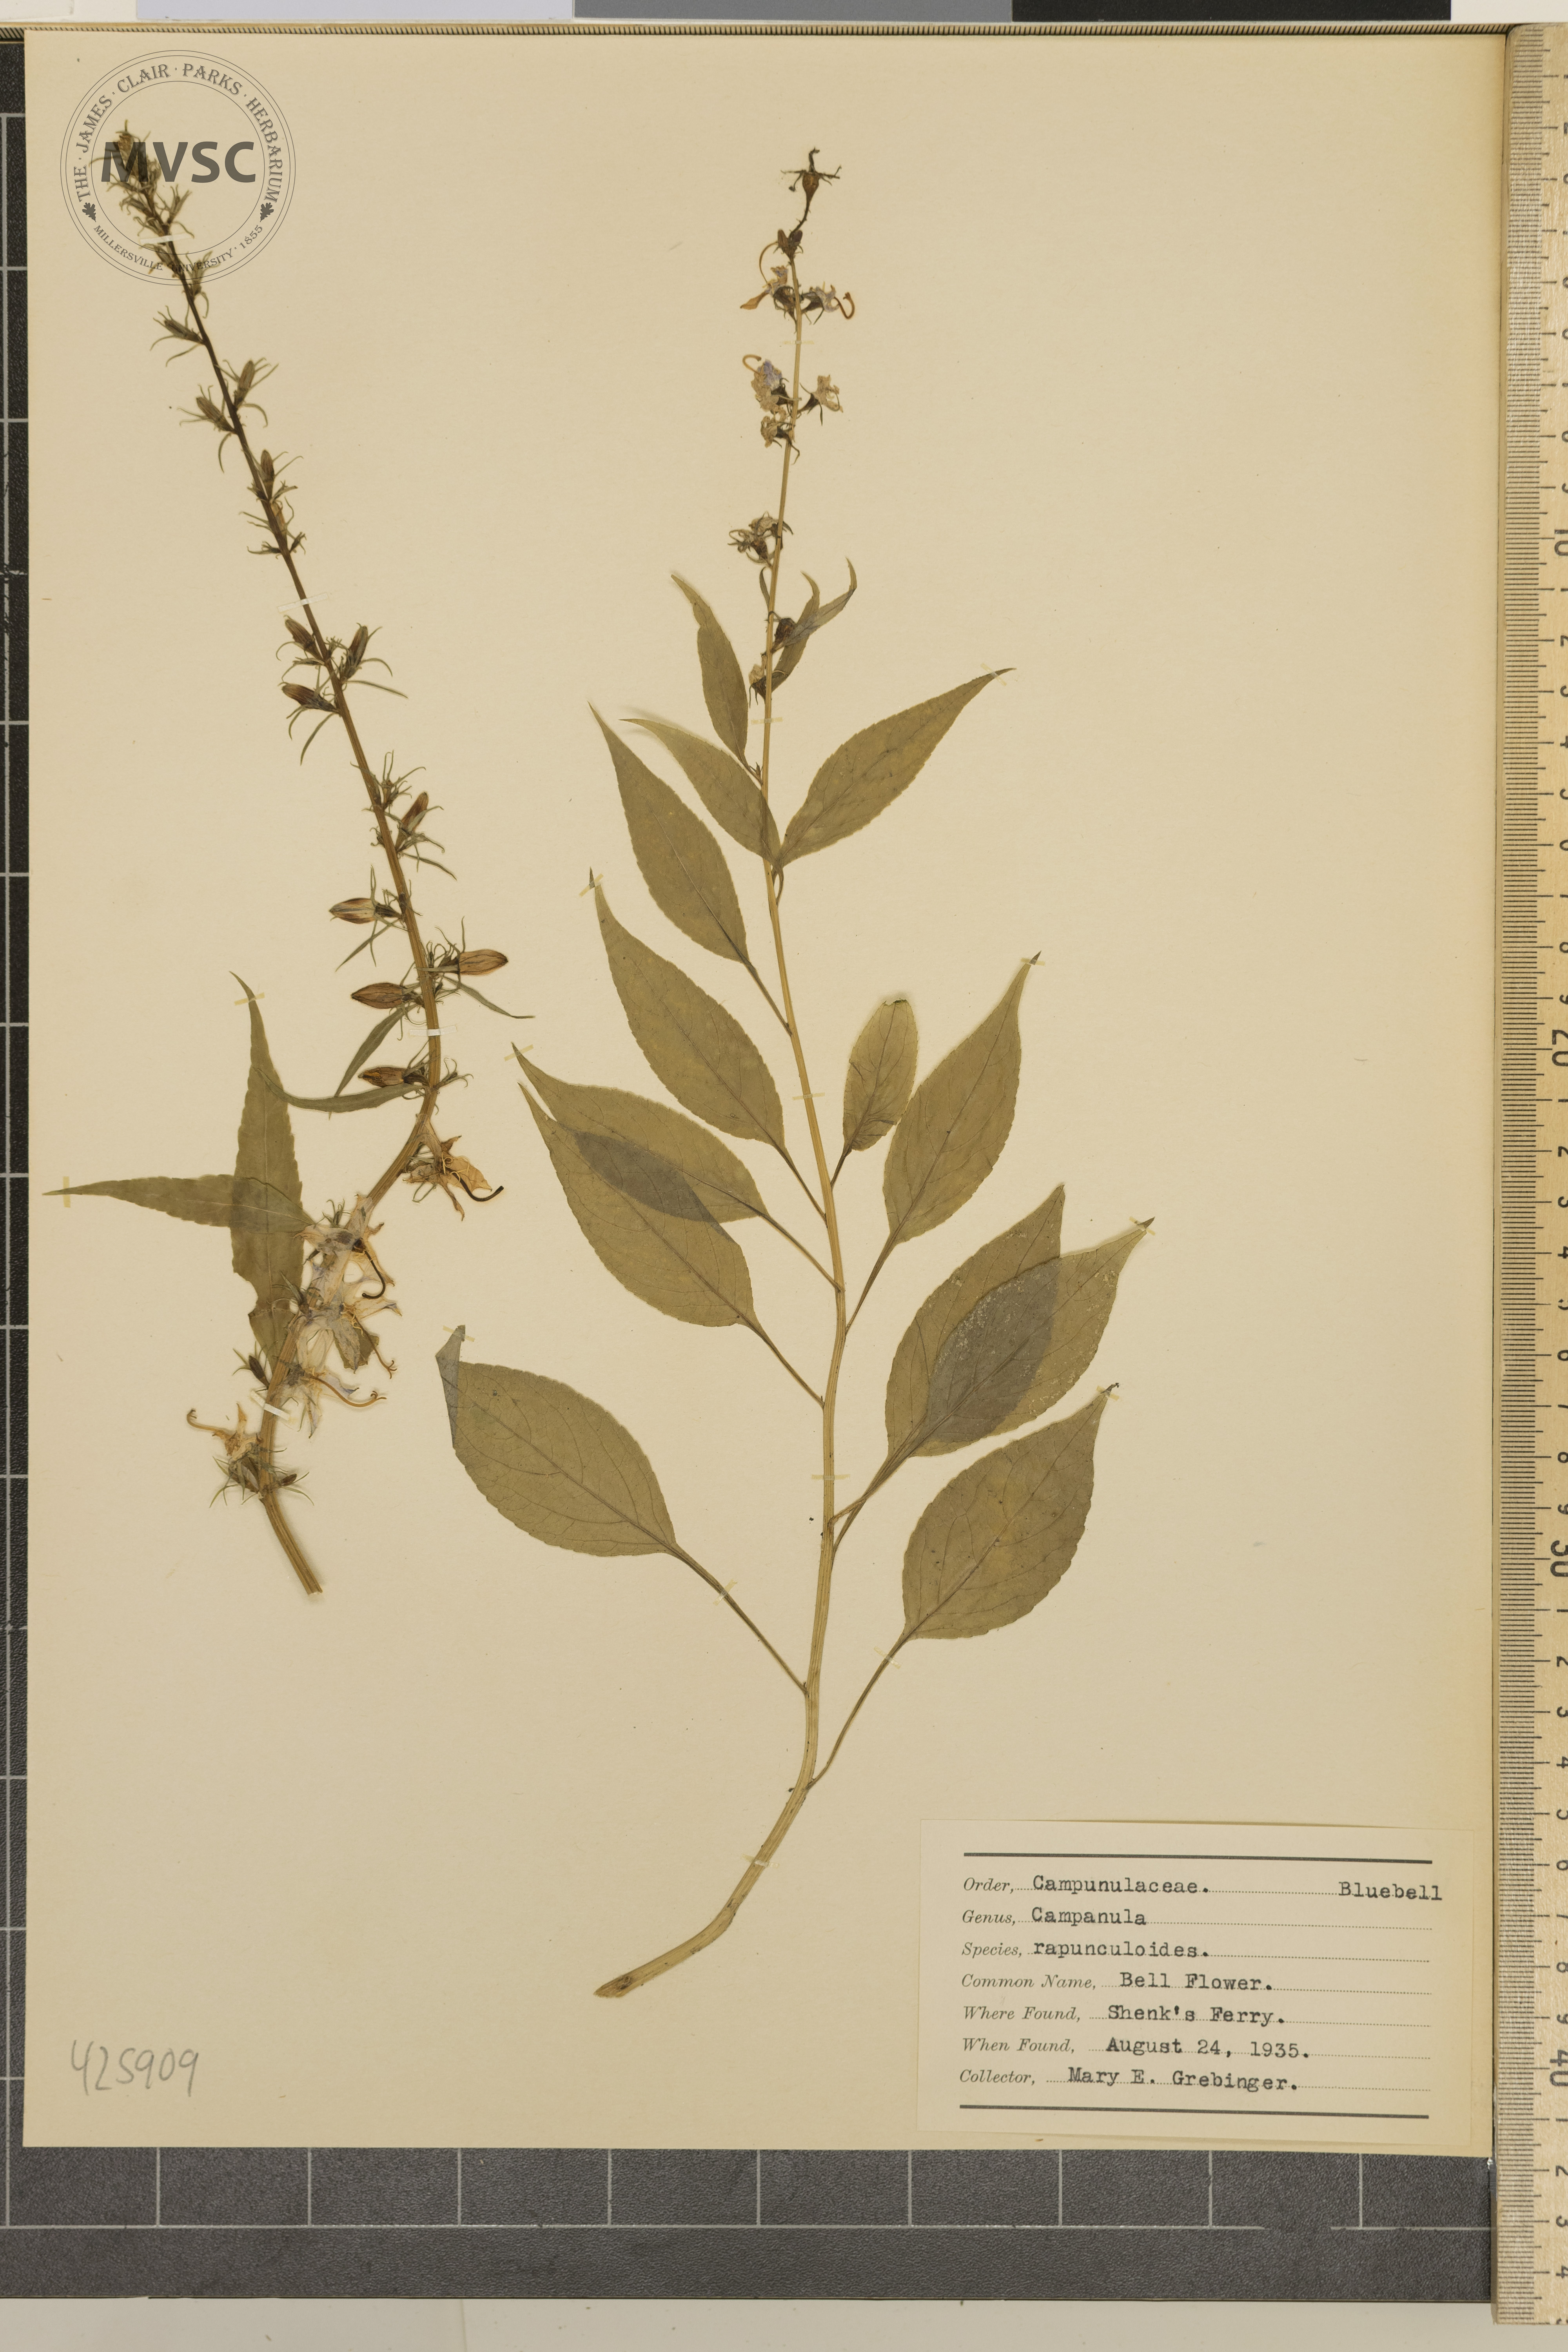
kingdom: Plantae
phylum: Tracheophyta
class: Magnoliopsida
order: Asterales
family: Campanulaceae
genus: Campanula
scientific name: Campanula rapunculoides
